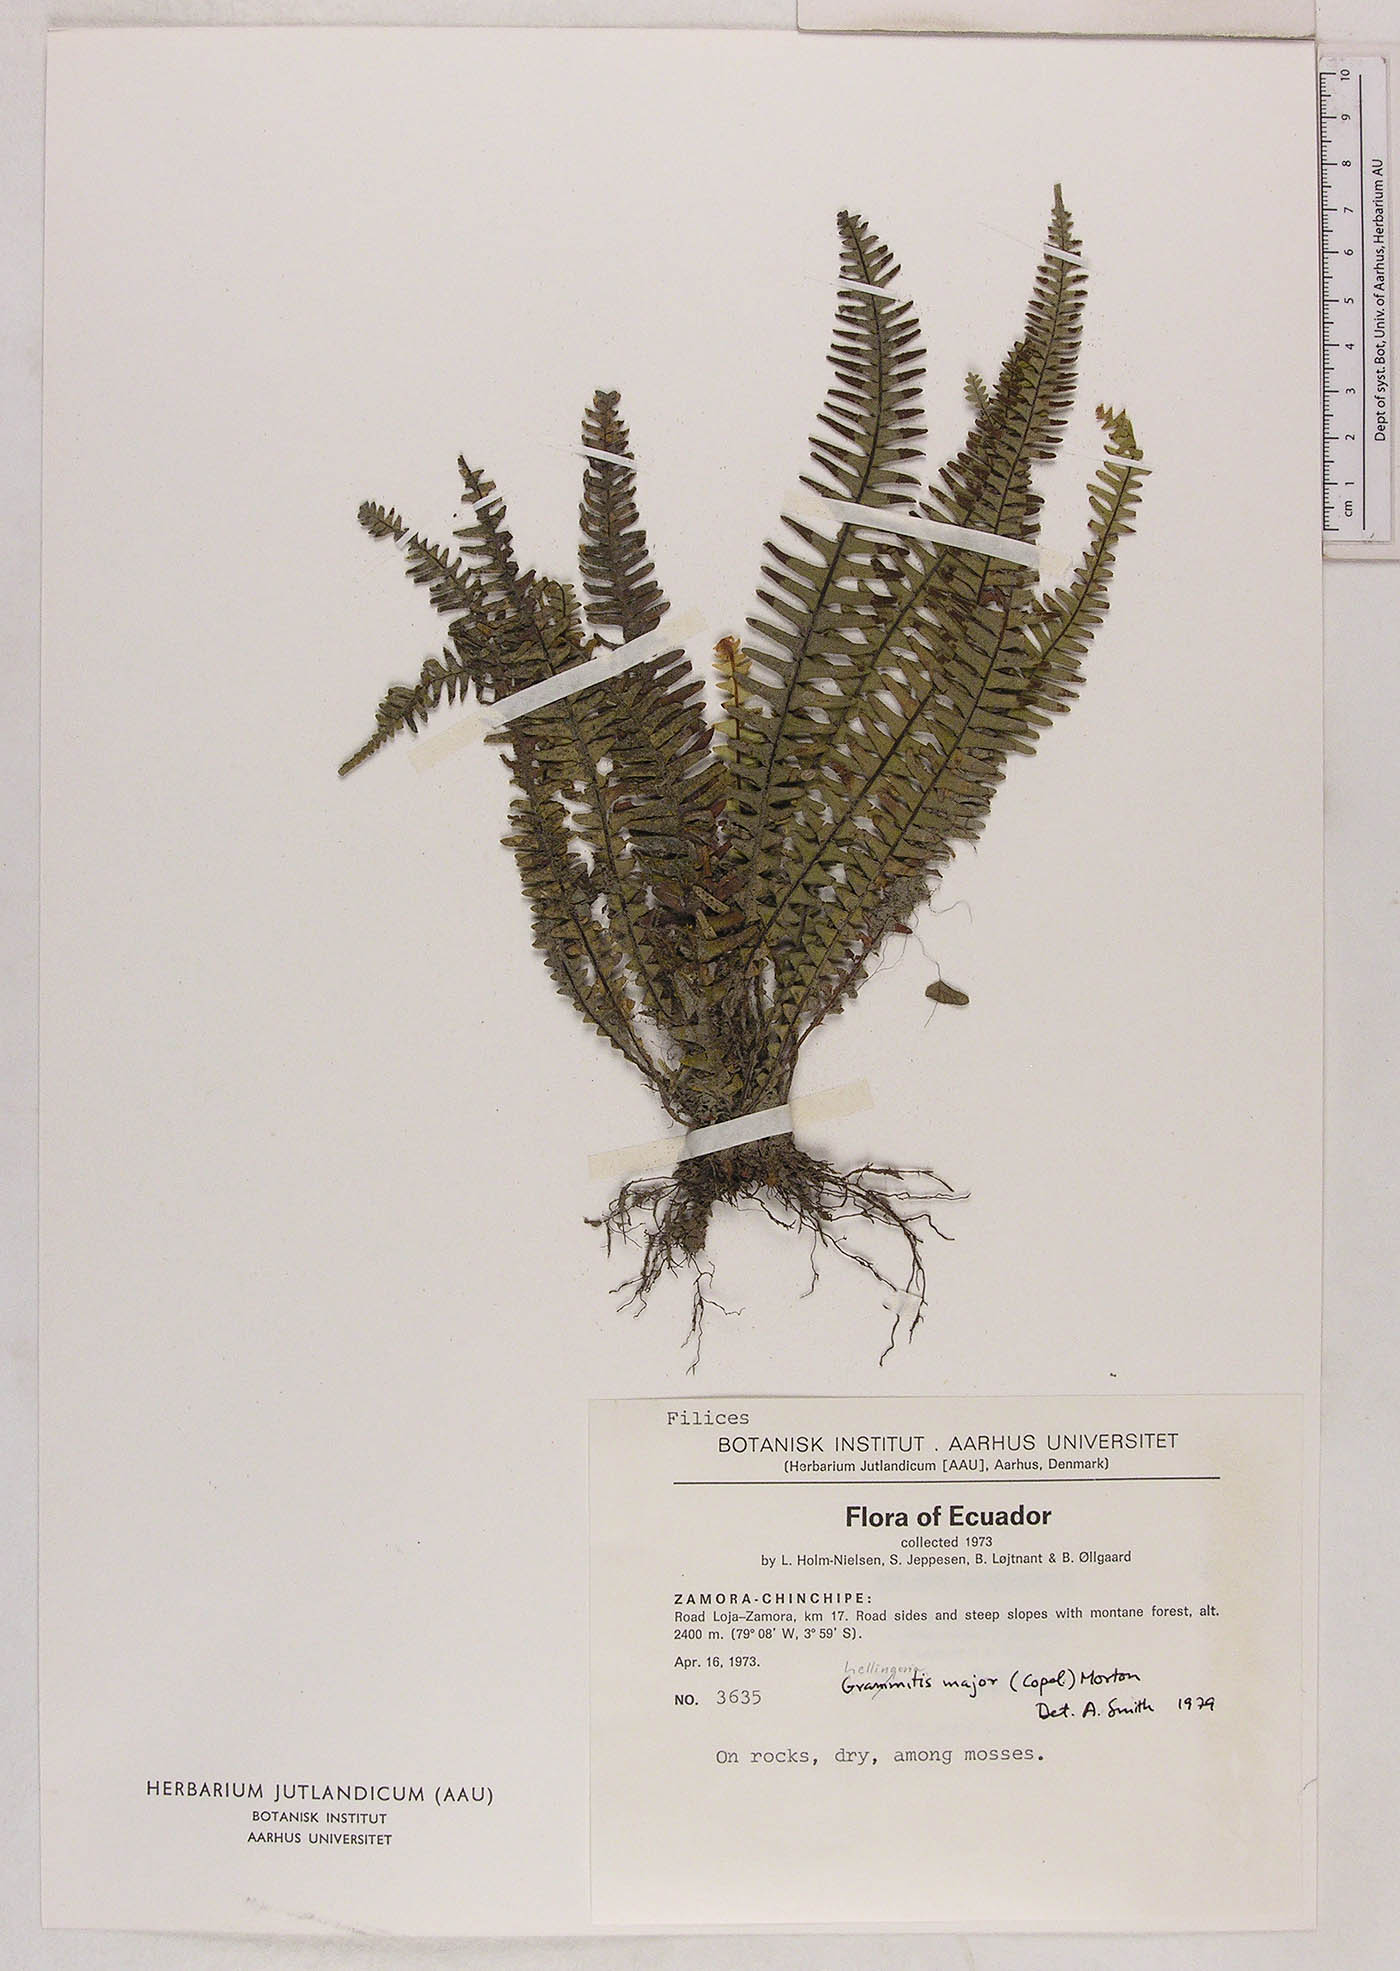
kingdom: Plantae
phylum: Tracheophyta
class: Polypodiopsida
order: Polypodiales
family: Polypodiaceae
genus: Lellingeria
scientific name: Lellingeria major
